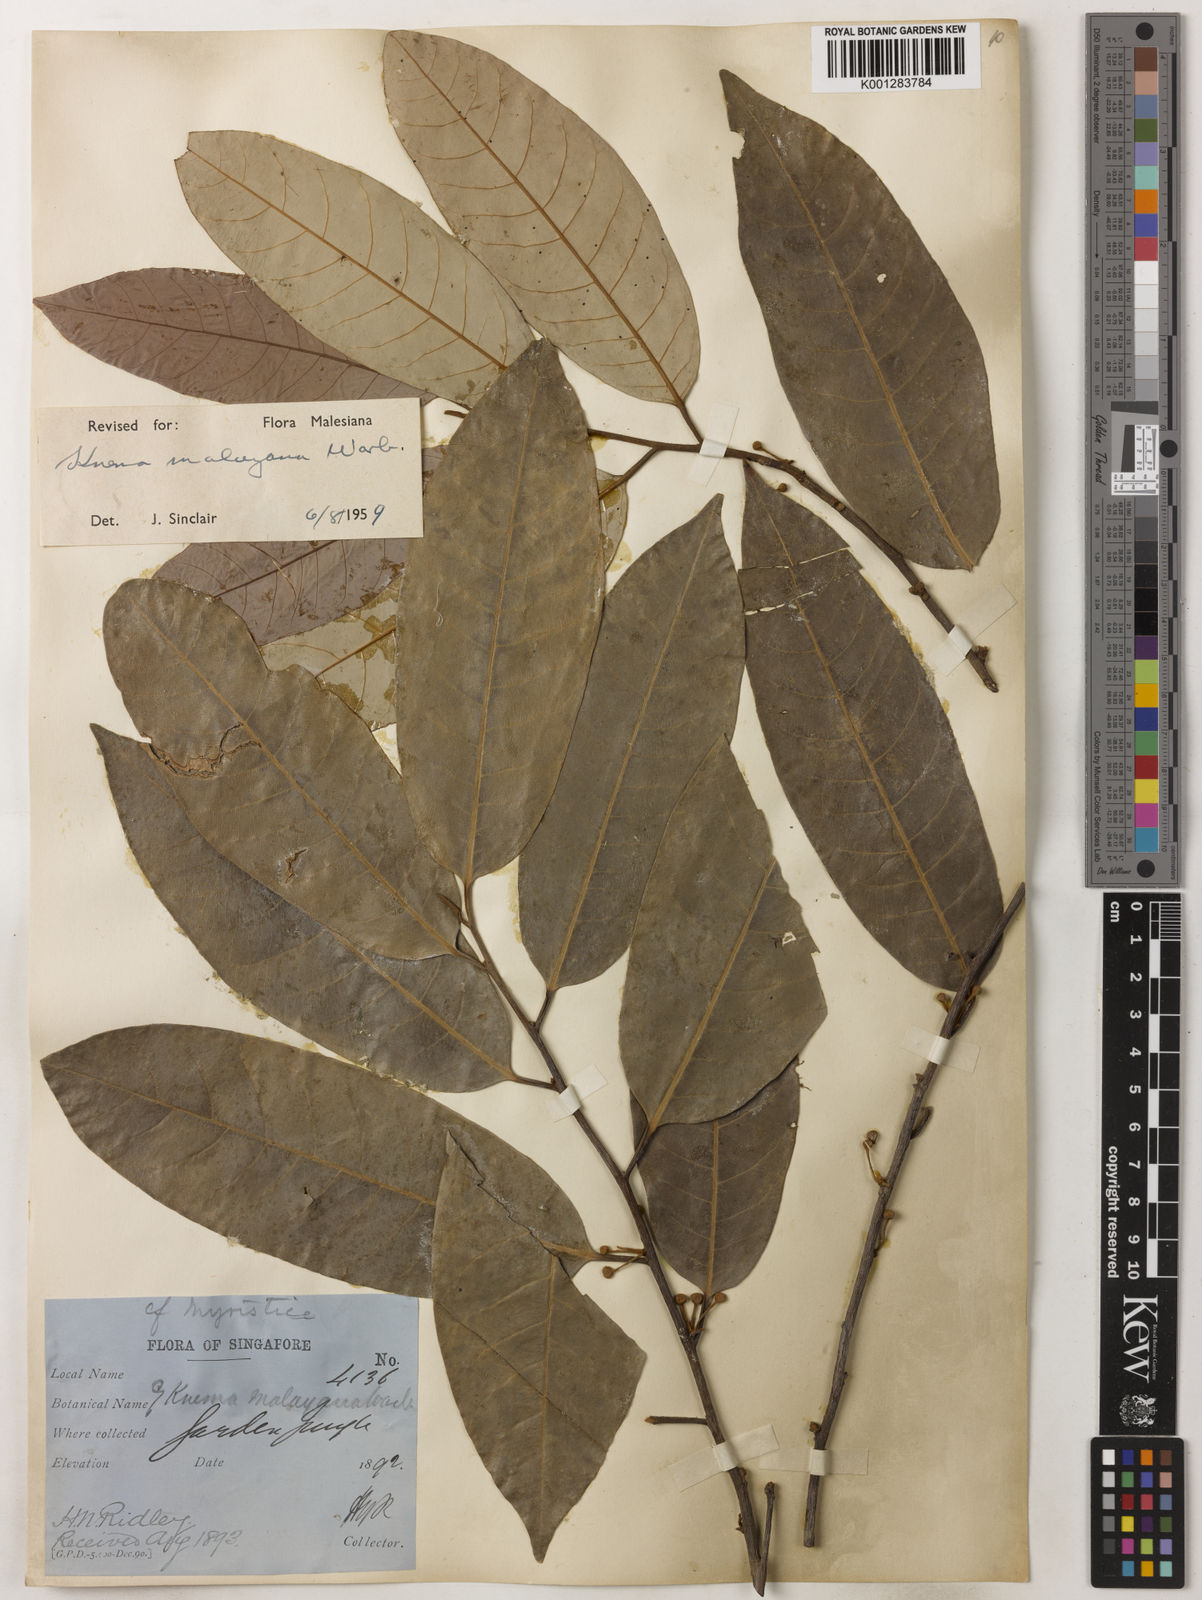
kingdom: Plantae
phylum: Tracheophyta
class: Magnoliopsida
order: Magnoliales
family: Myristicaceae
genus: Knema
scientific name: Knema malayana
